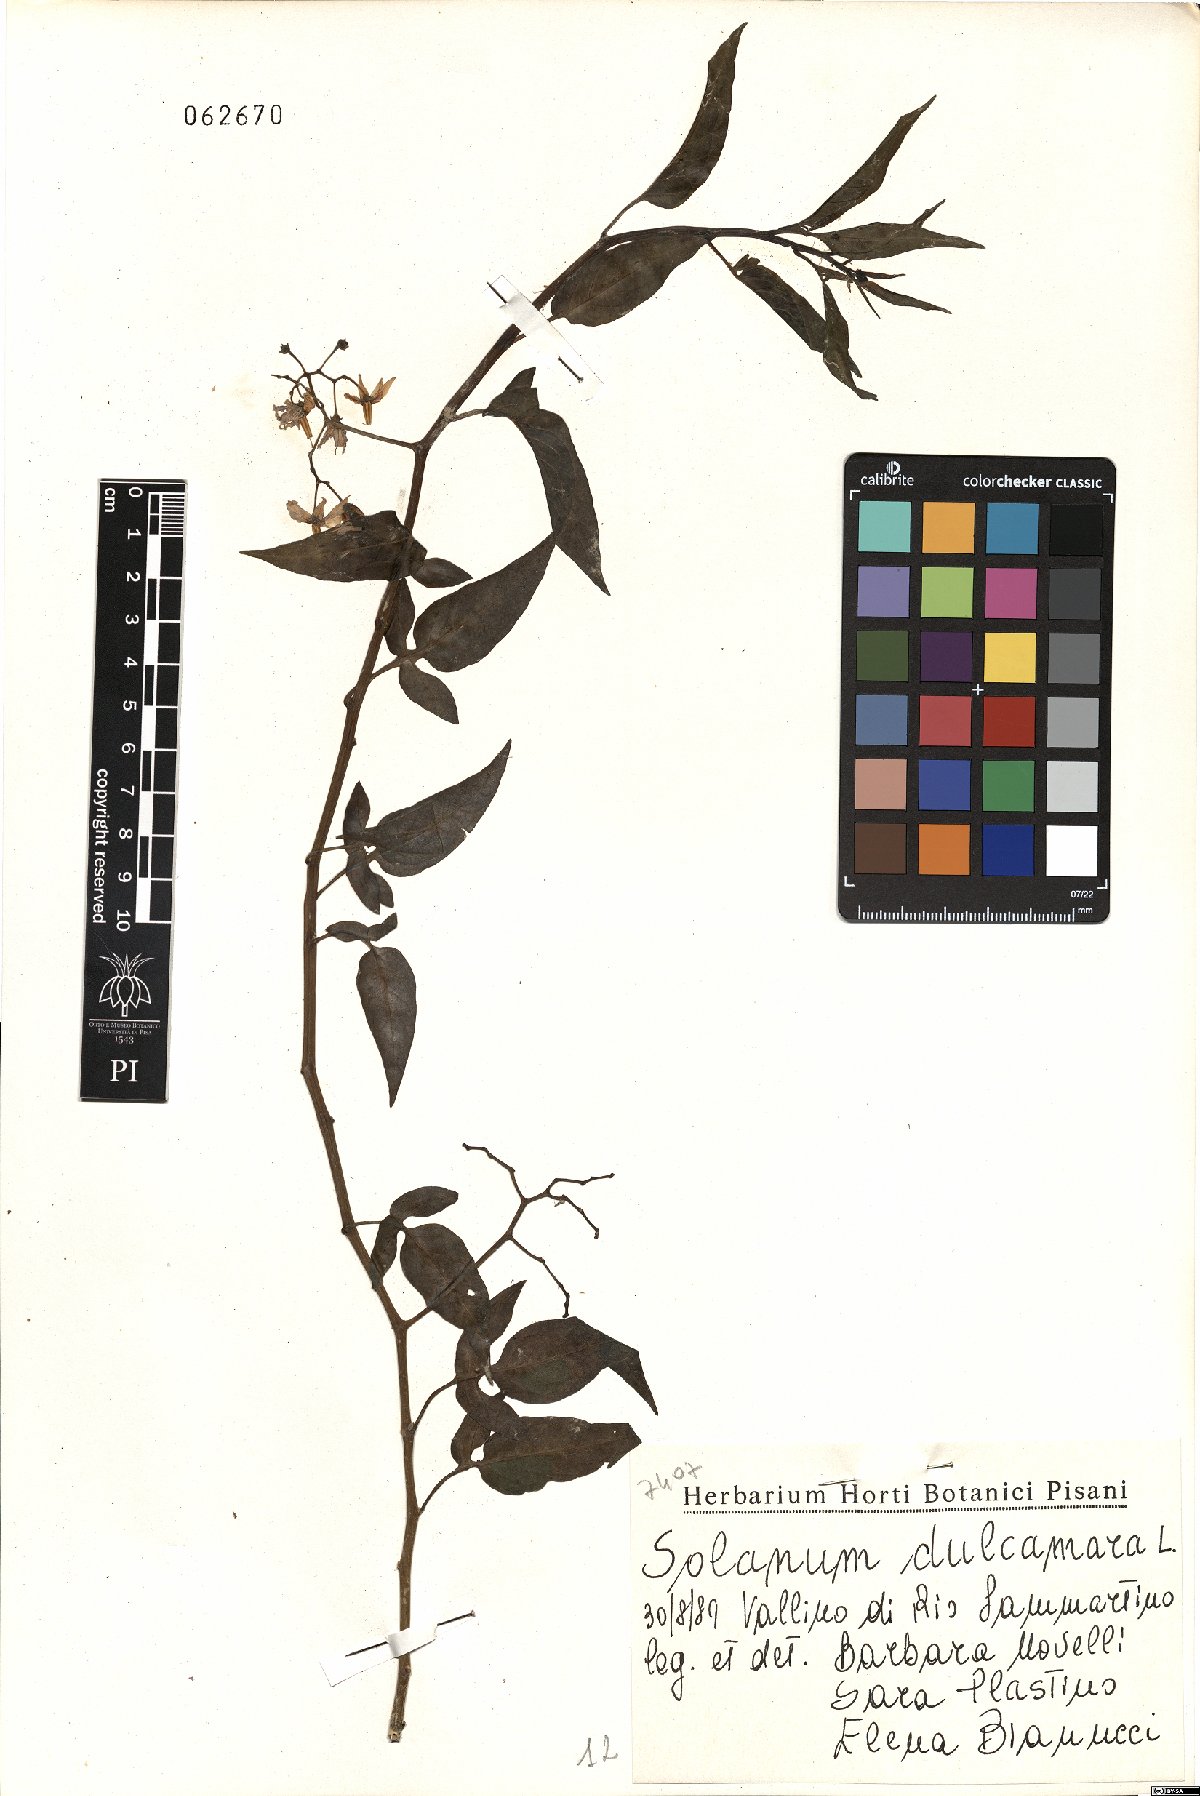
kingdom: Plantae
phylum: Tracheophyta
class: Magnoliopsida
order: Solanales
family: Solanaceae
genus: Solanum
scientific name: Solanum dulcamara
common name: Climbing nightshade
